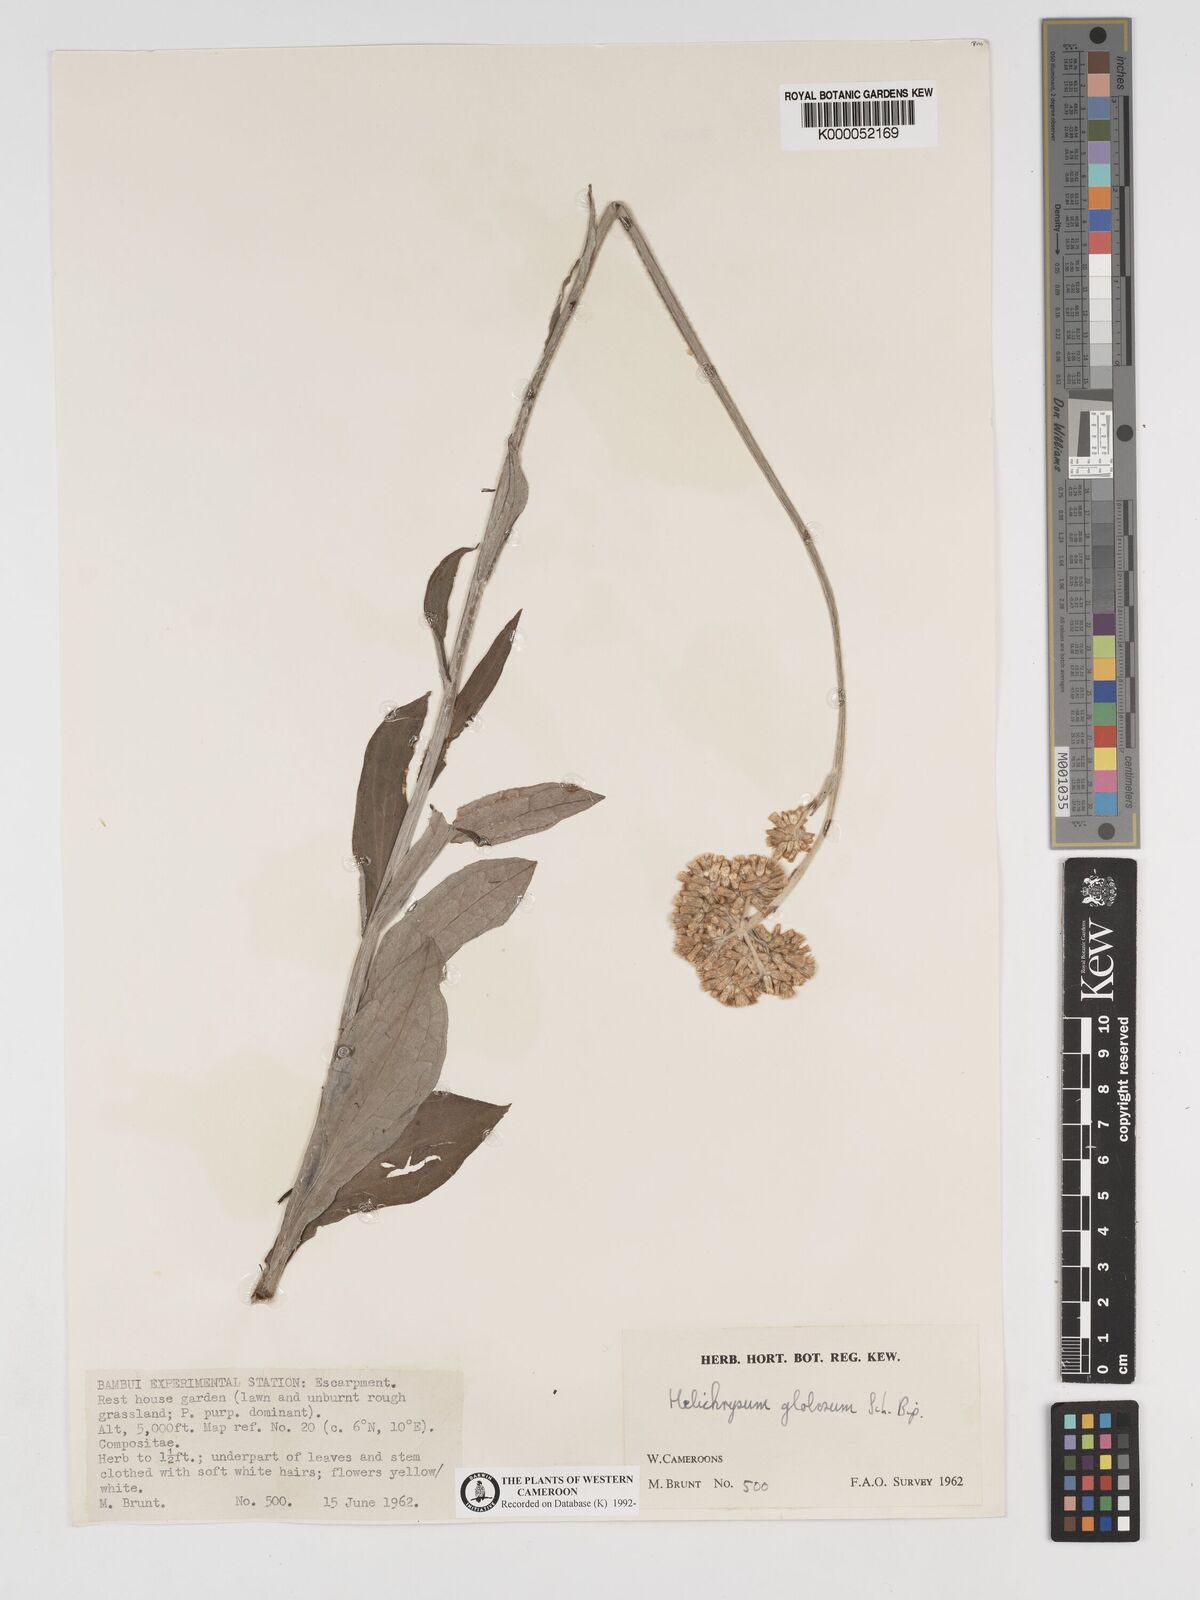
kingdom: Plantae
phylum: Tracheophyta
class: Magnoliopsida
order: Asterales
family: Asteraceae
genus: Helichrysum
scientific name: Helichrysum
